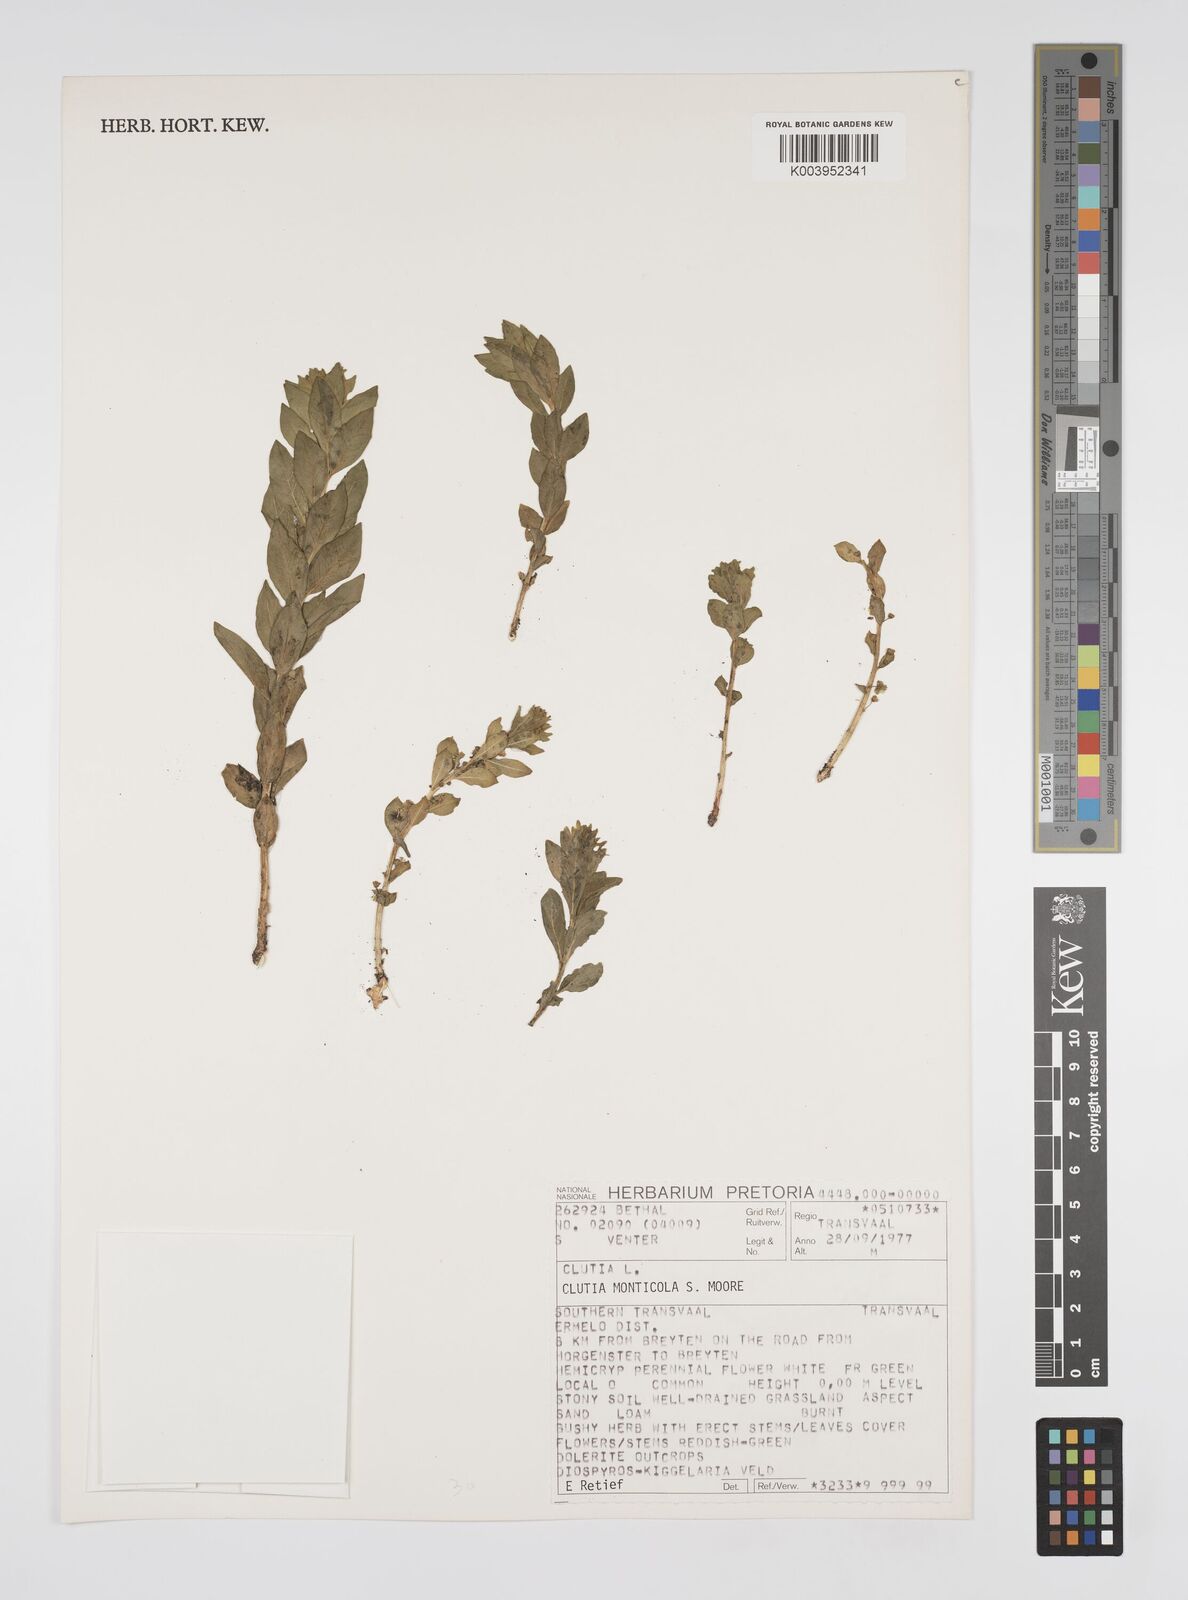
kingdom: Plantae
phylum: Tracheophyta
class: Magnoliopsida
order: Malpighiales
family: Peraceae
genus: Clutia
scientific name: Clutia monticola
